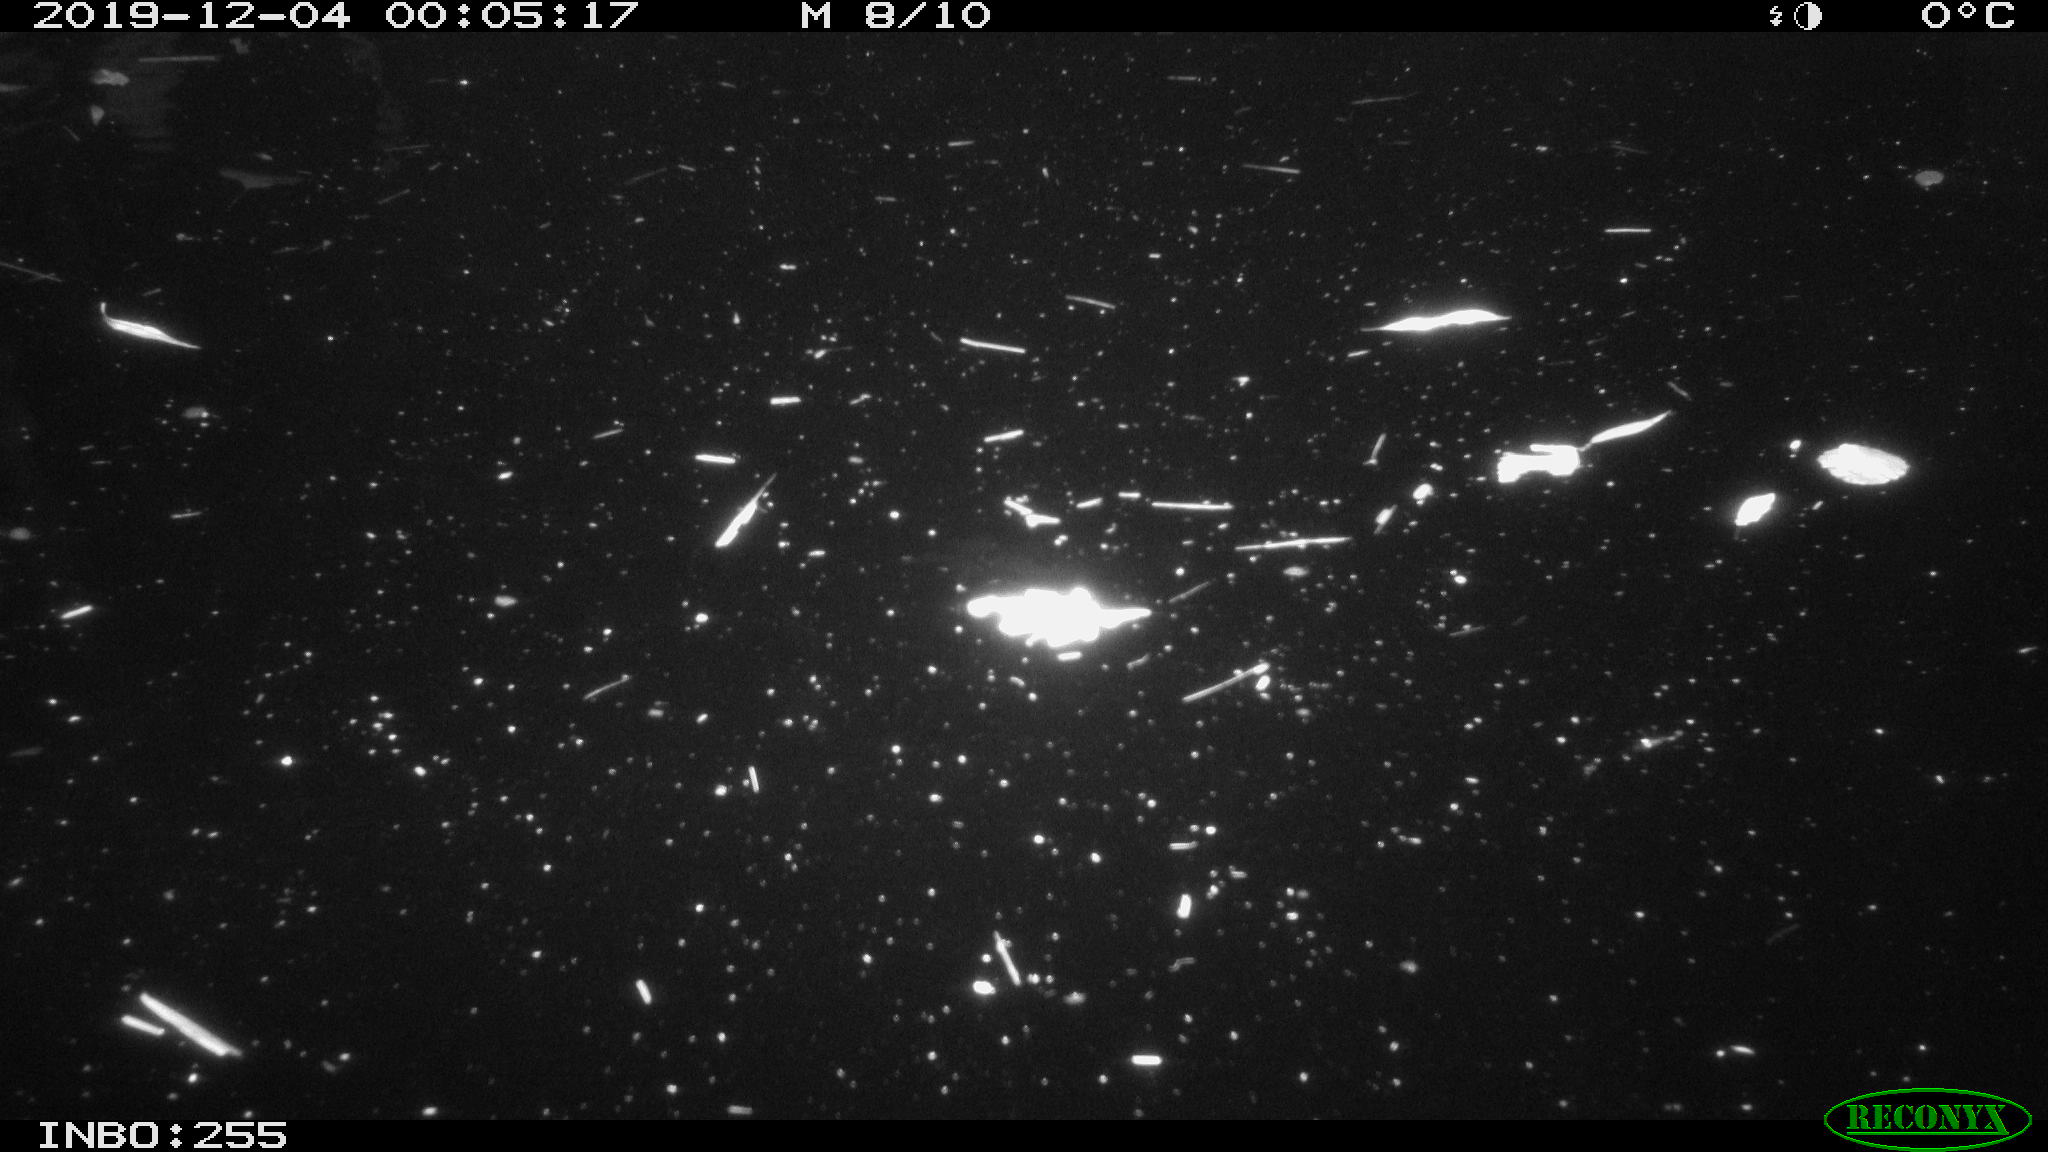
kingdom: Animalia
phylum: Chordata
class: Mammalia
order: Rodentia
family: Cricetidae
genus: Ondatra
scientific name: Ondatra zibethicus
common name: Muskrat
